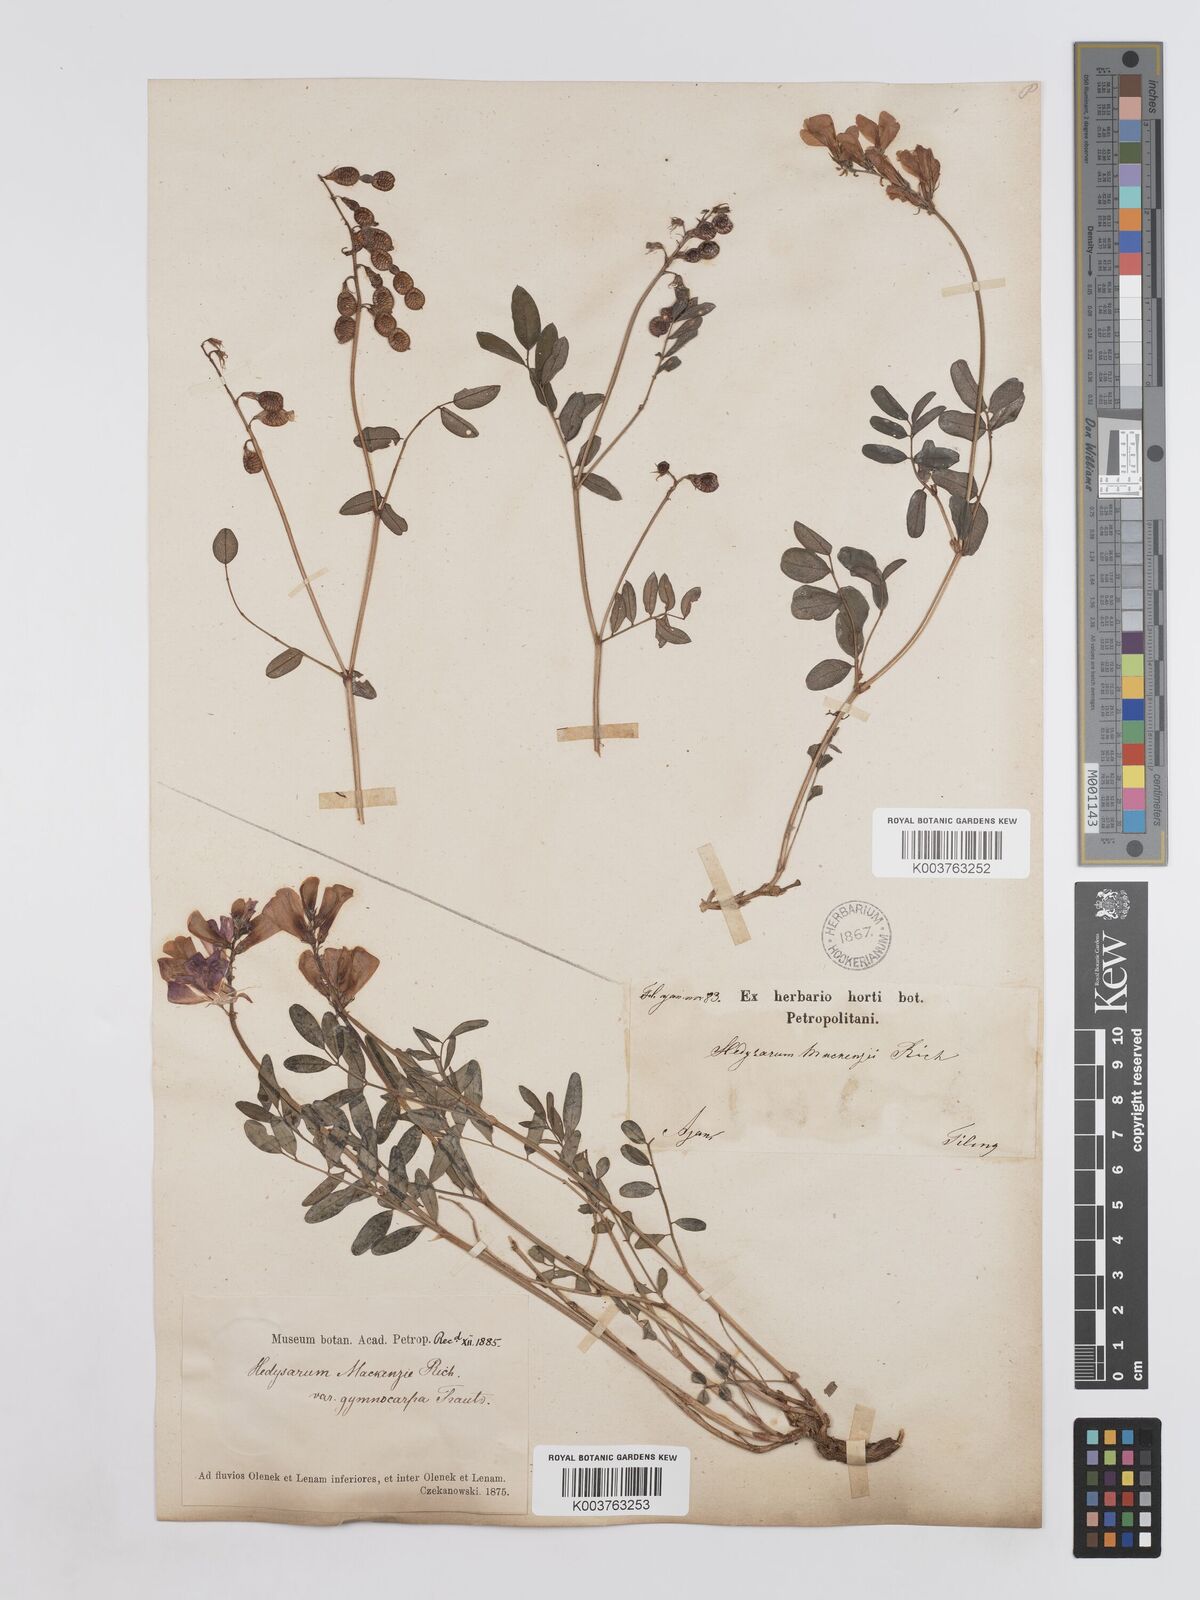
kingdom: Plantae
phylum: Tracheophyta
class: Magnoliopsida
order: Fabales
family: Fabaceae
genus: Hedysarum
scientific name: Hedysarum boreale
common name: Northern sweet-vetch
